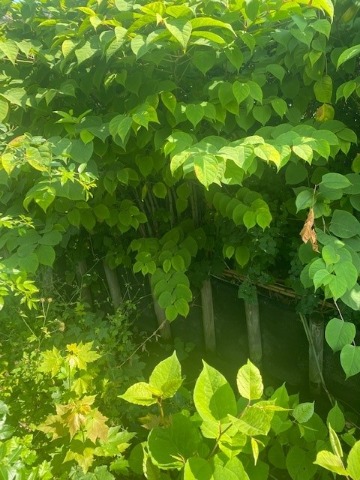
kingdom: Plantae
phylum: Tracheophyta
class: Magnoliopsida
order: Caryophyllales
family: Polygonaceae
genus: Reynoutria
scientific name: Reynoutria japonica
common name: Japan-pileurt
